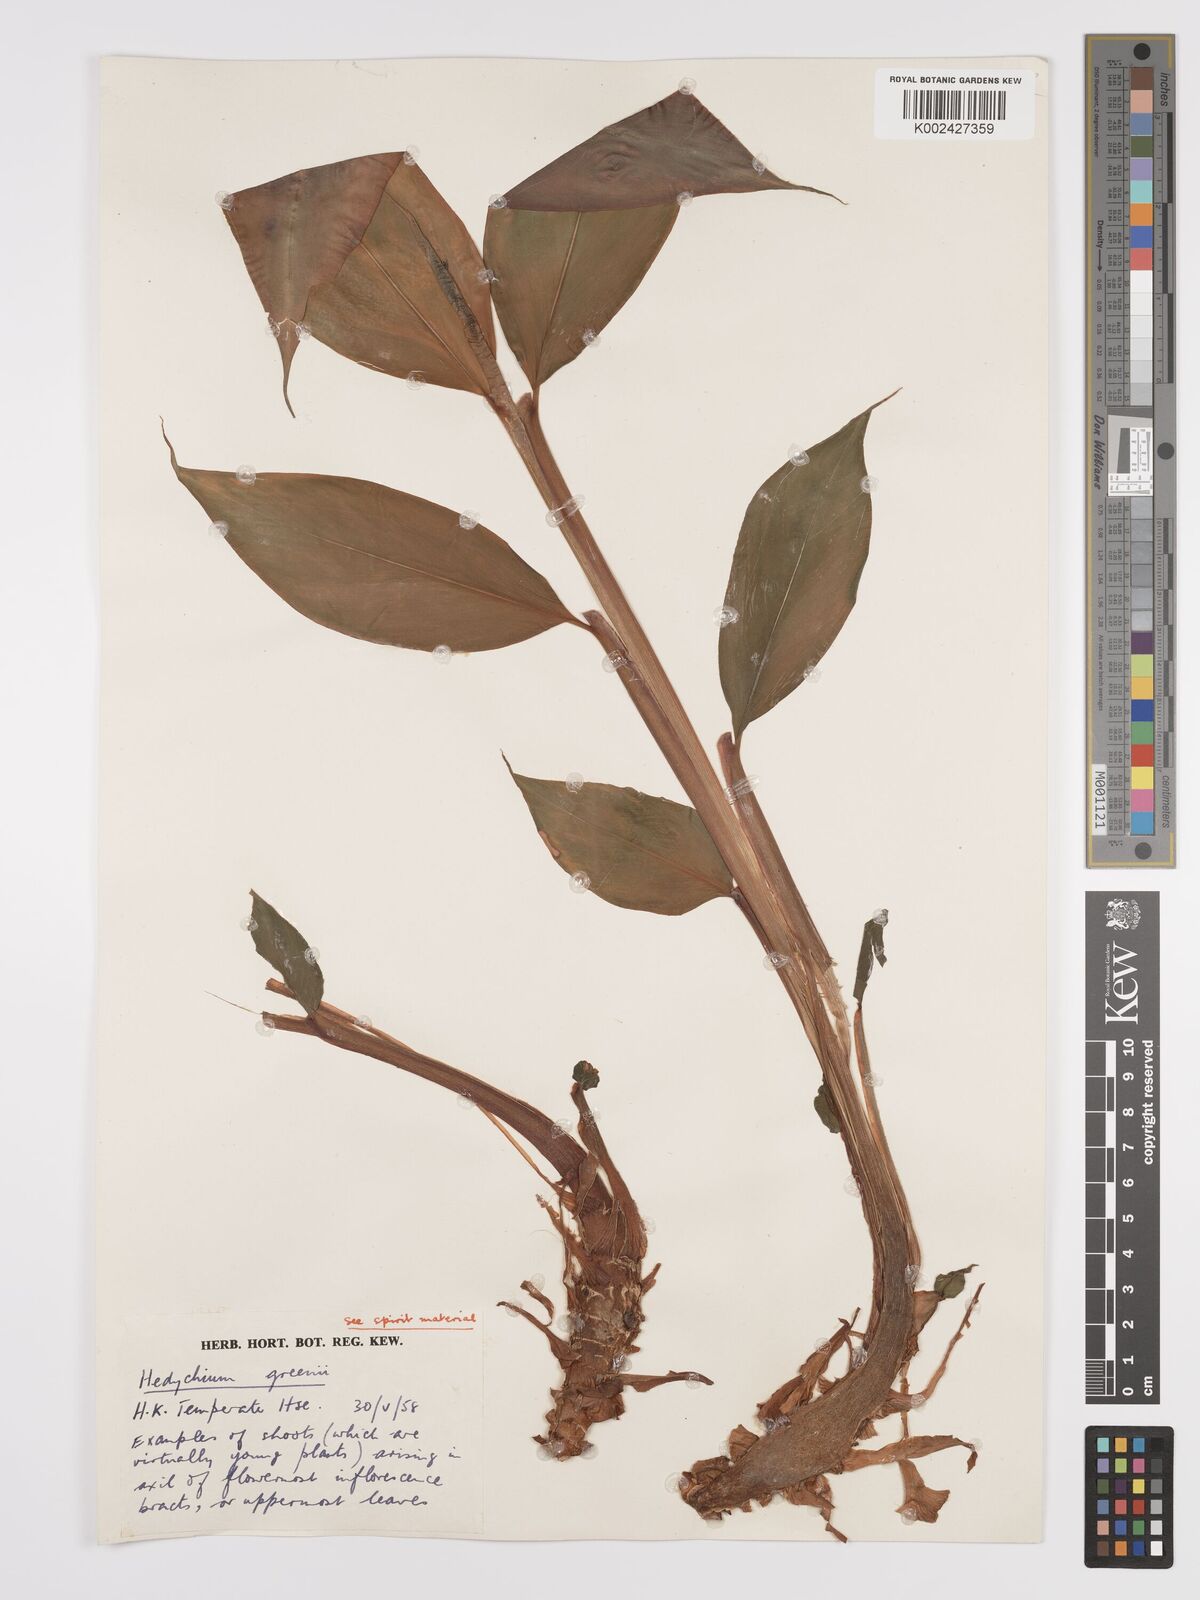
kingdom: Plantae
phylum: Tracheophyta
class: Liliopsida
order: Zingiberales
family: Zingiberaceae
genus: Hedychium
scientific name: Hedychium greenii
